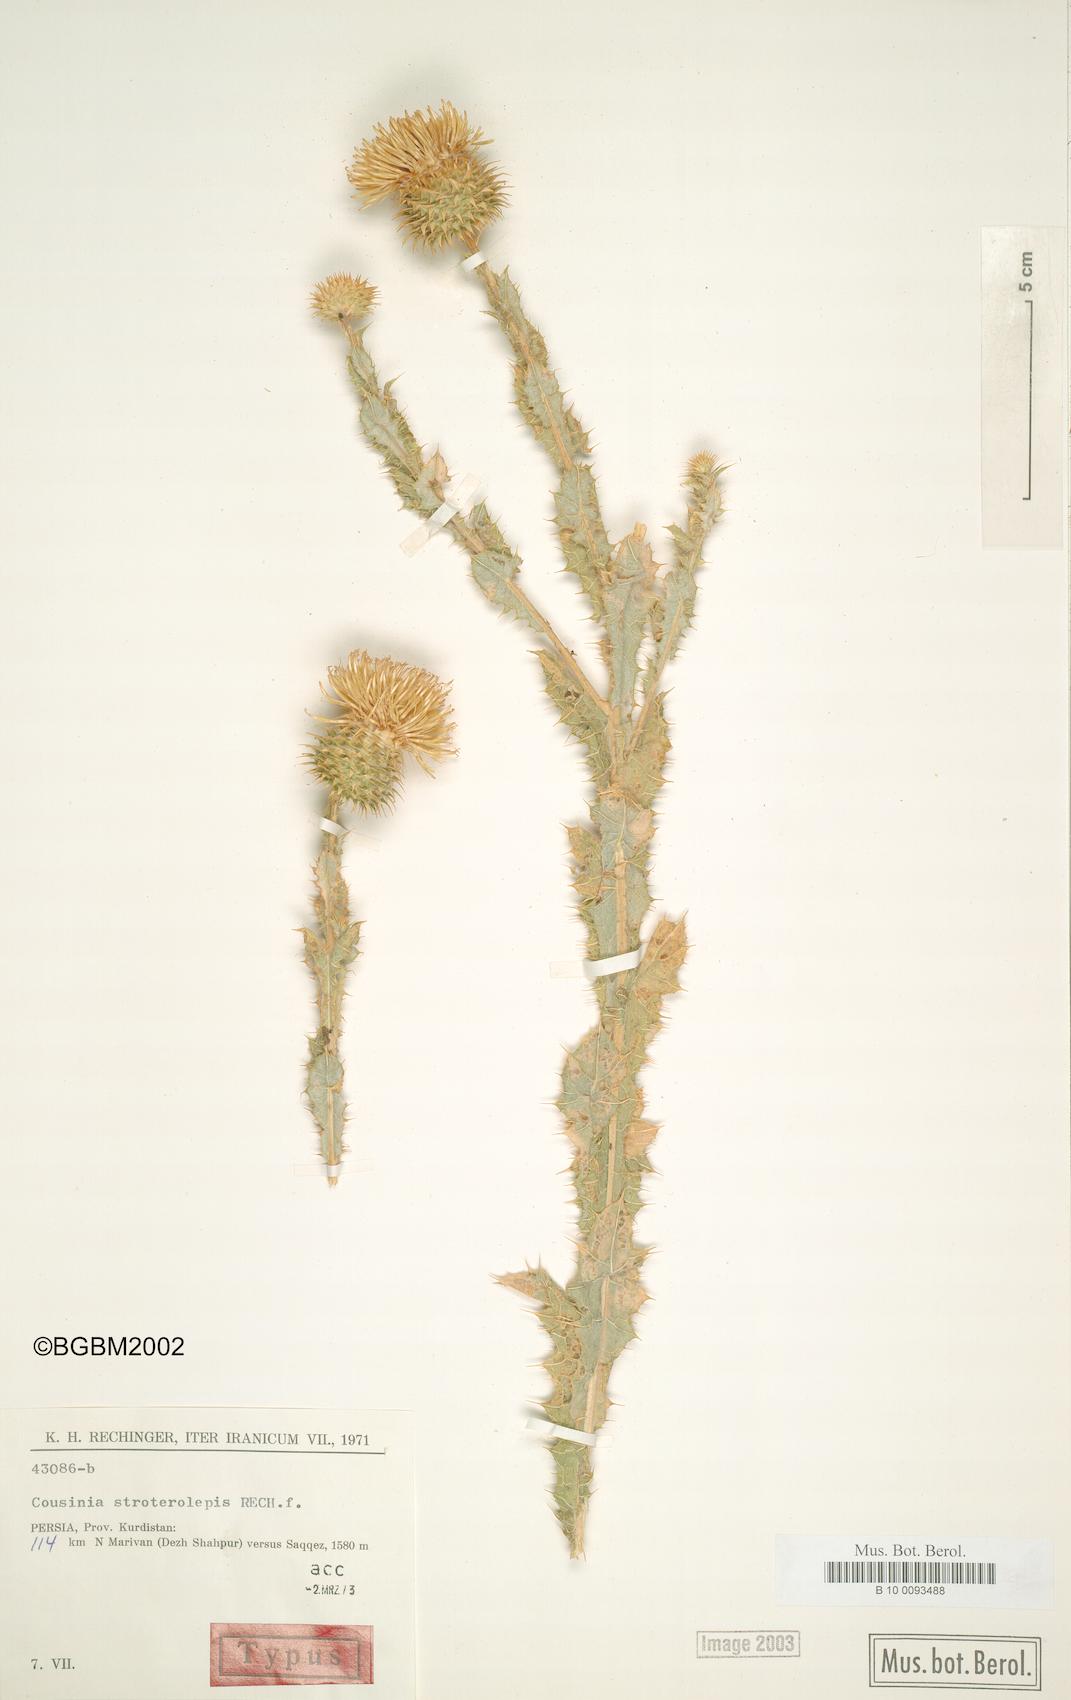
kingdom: Plantae
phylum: Tracheophyta
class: Magnoliopsida
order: Asterales
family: Asteraceae
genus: Cousinia
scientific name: Cousinia stroterolepis
